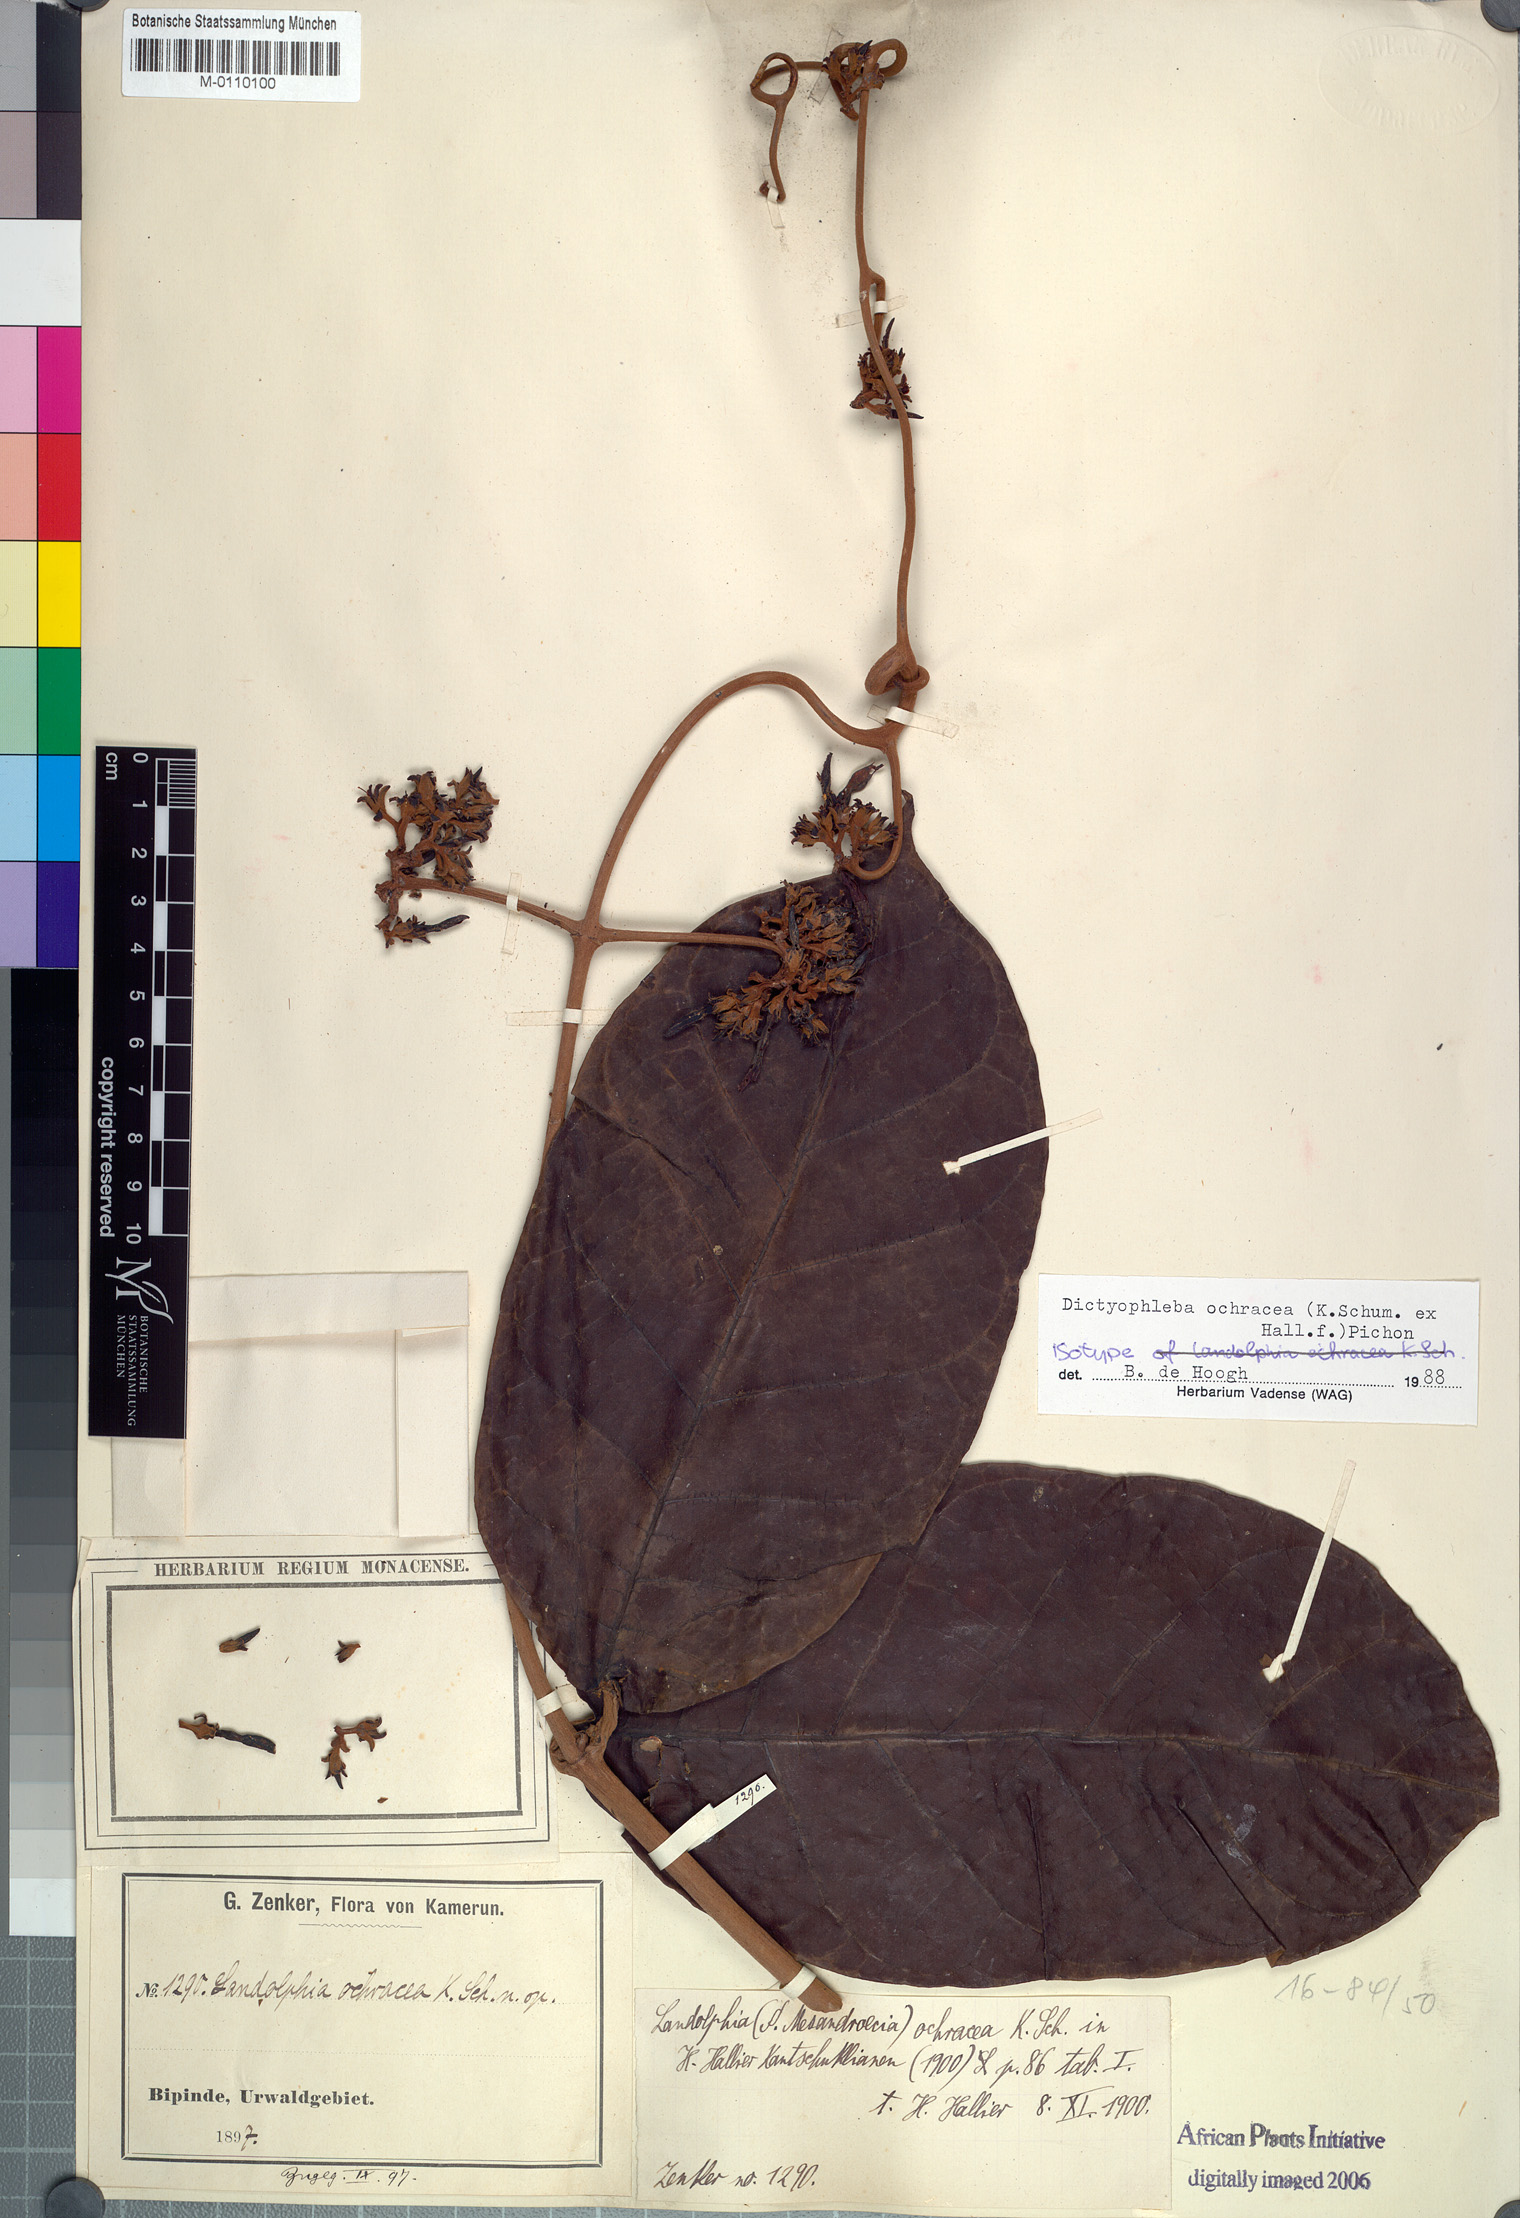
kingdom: Plantae
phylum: Tracheophyta
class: Magnoliopsida
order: Gentianales
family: Apocynaceae
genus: Dictyophleba
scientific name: Dictyophleba ochracea
